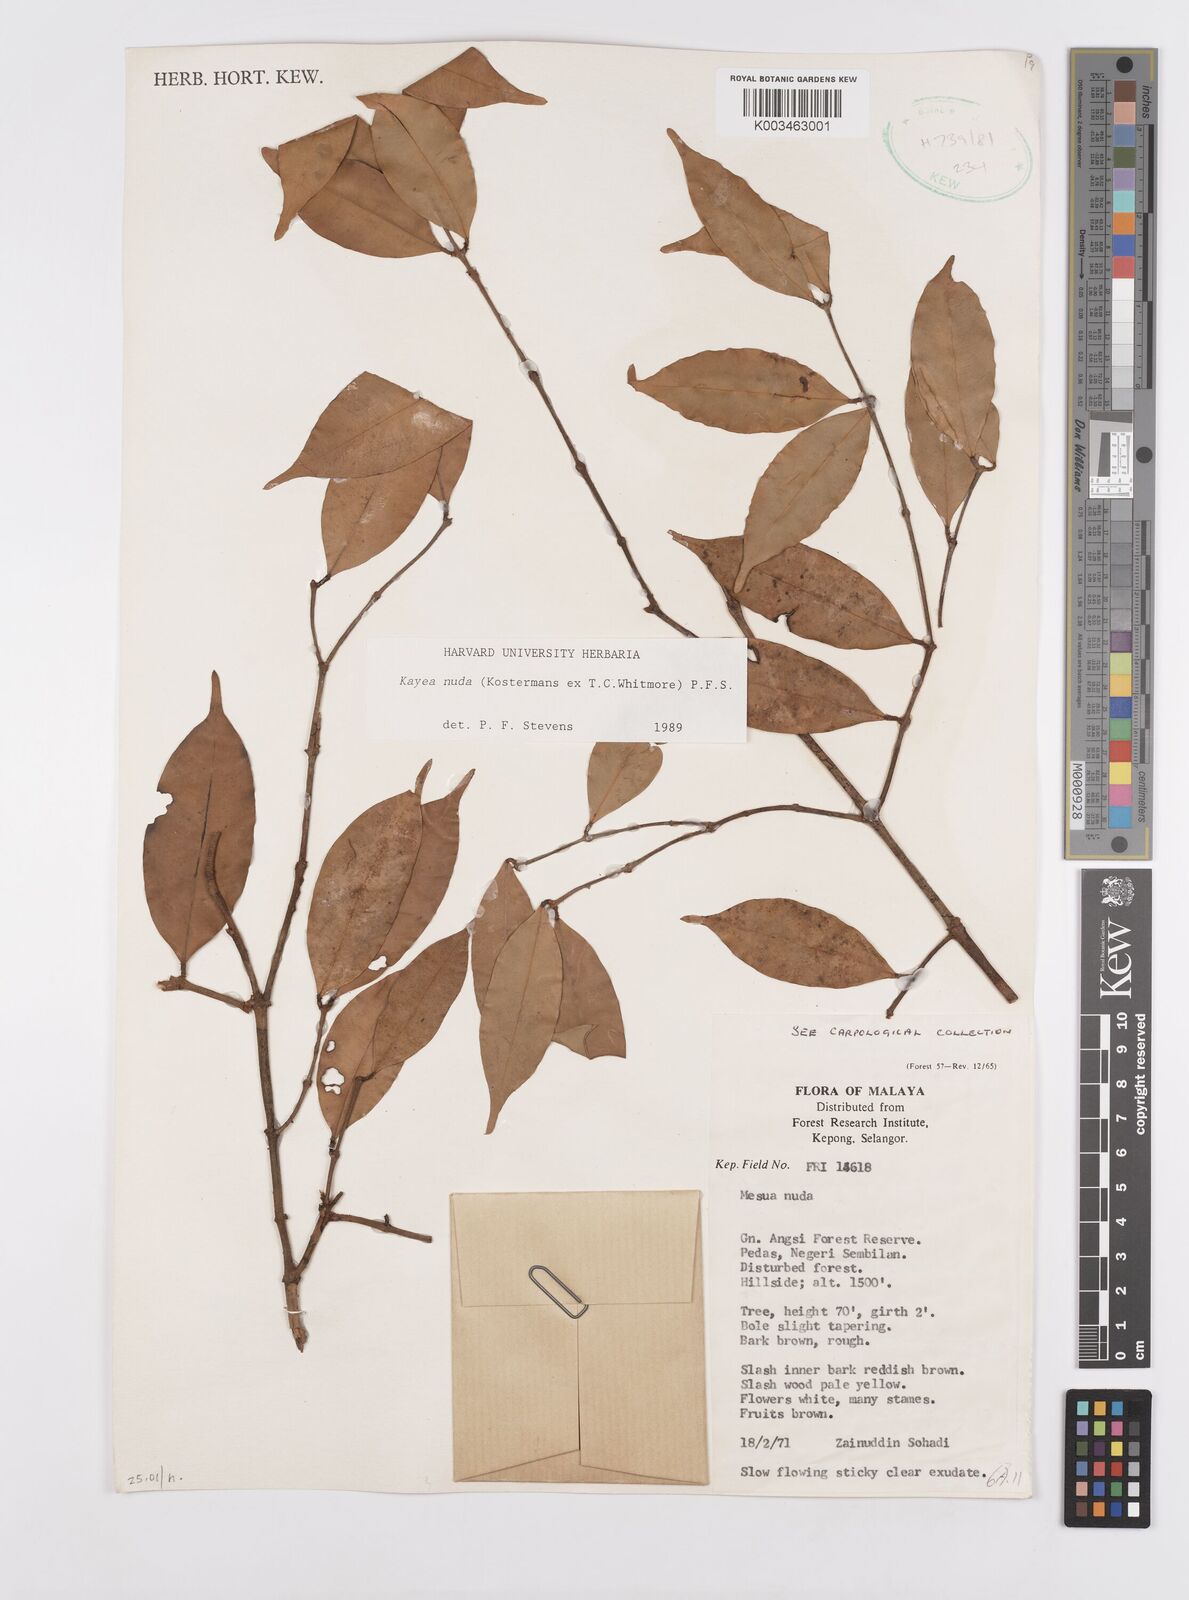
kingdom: Plantae
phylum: Tracheophyta
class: Magnoliopsida
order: Malpighiales
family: Calophyllaceae
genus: Kayea
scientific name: Kayea
